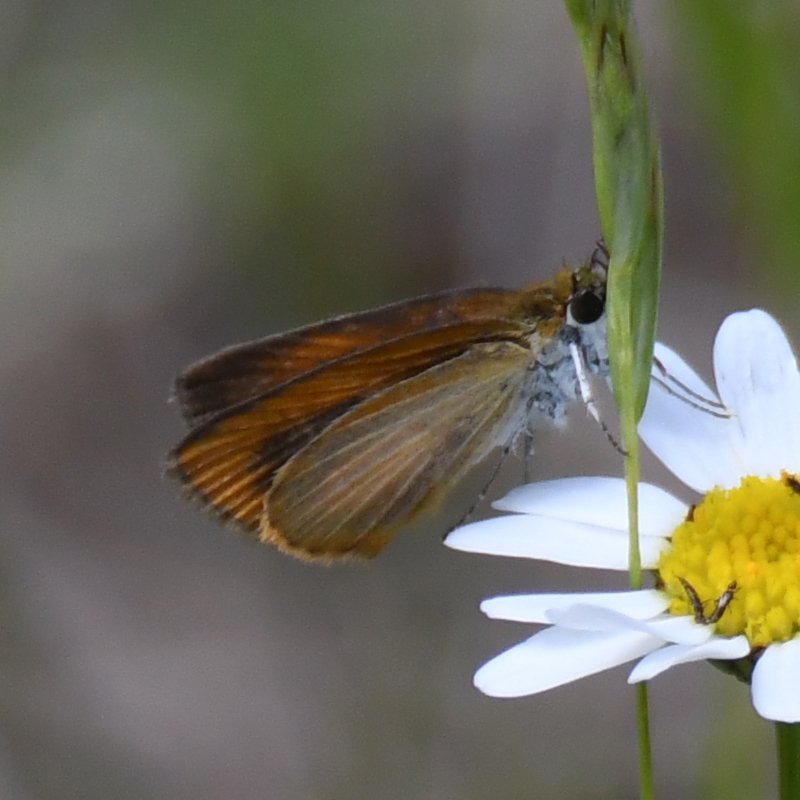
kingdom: Animalia
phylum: Arthropoda
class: Insecta
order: Lepidoptera
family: Hesperiidae
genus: Ancyloxypha
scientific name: Ancyloxypha numitor
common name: Least Skipper
